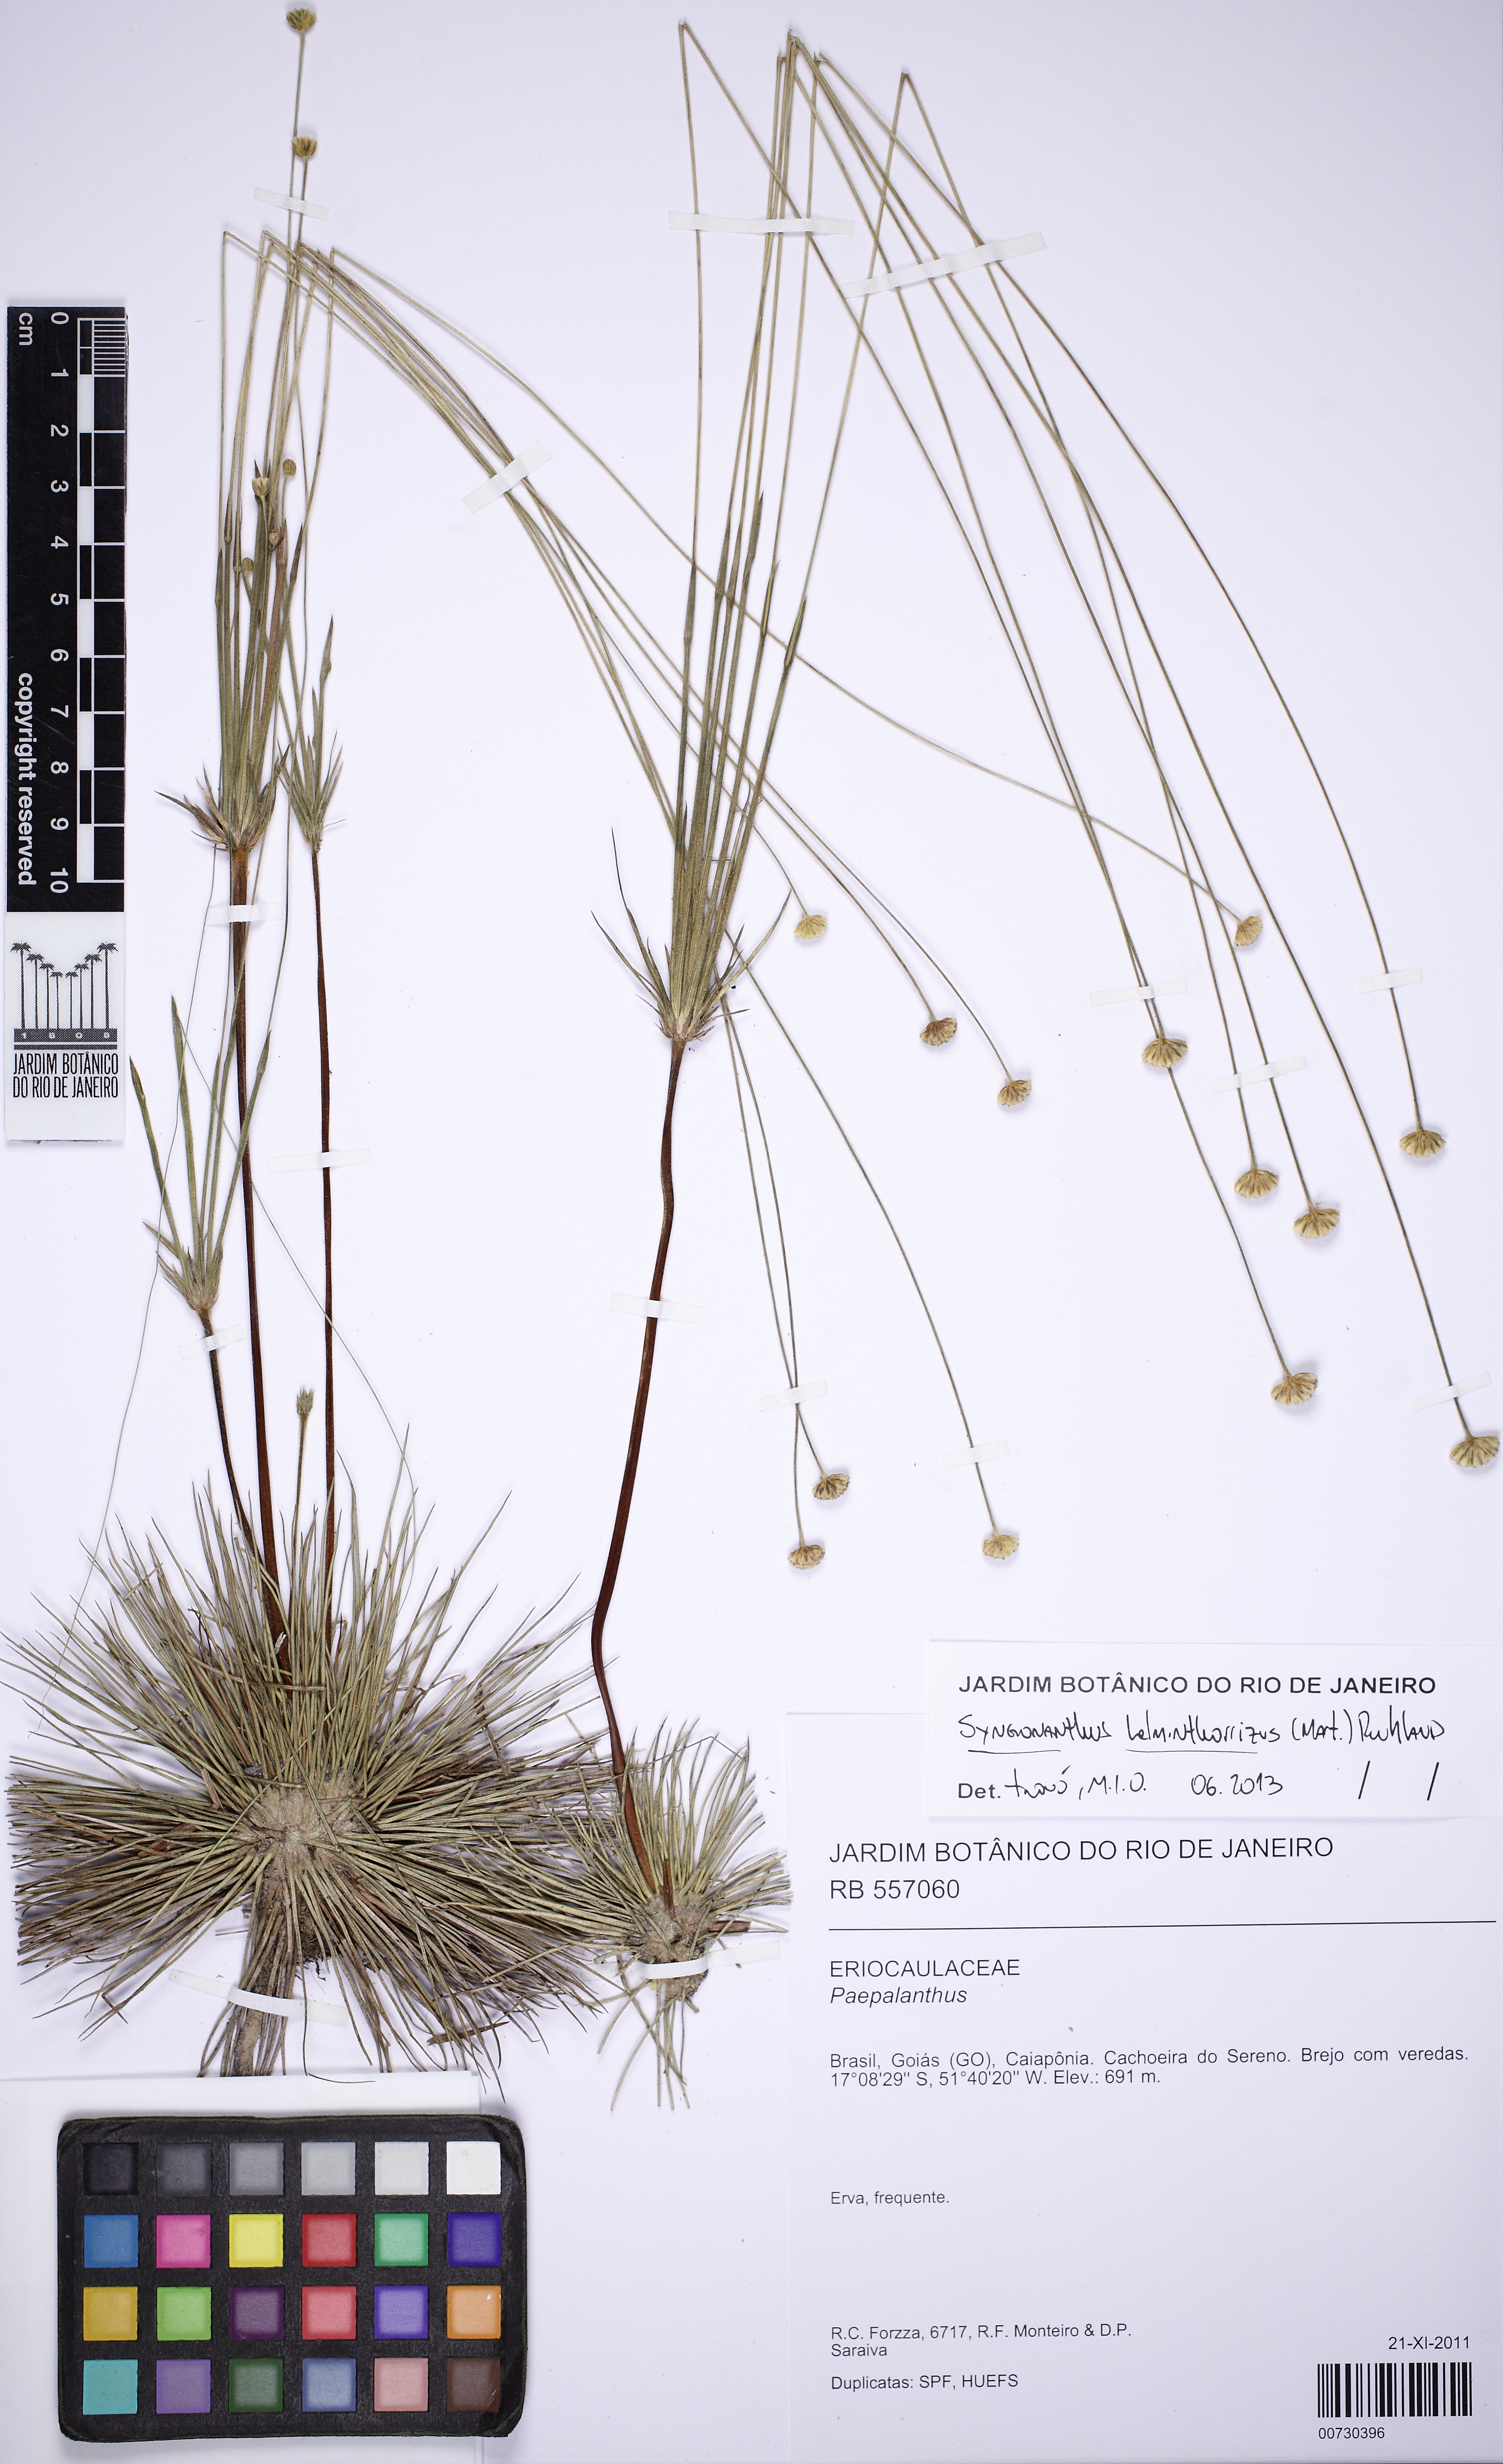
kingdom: Plantae
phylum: Tracheophyta
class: Liliopsida
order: Poales
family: Eriocaulaceae
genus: Syngonanthus
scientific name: Syngonanthus helminthorrhizus
